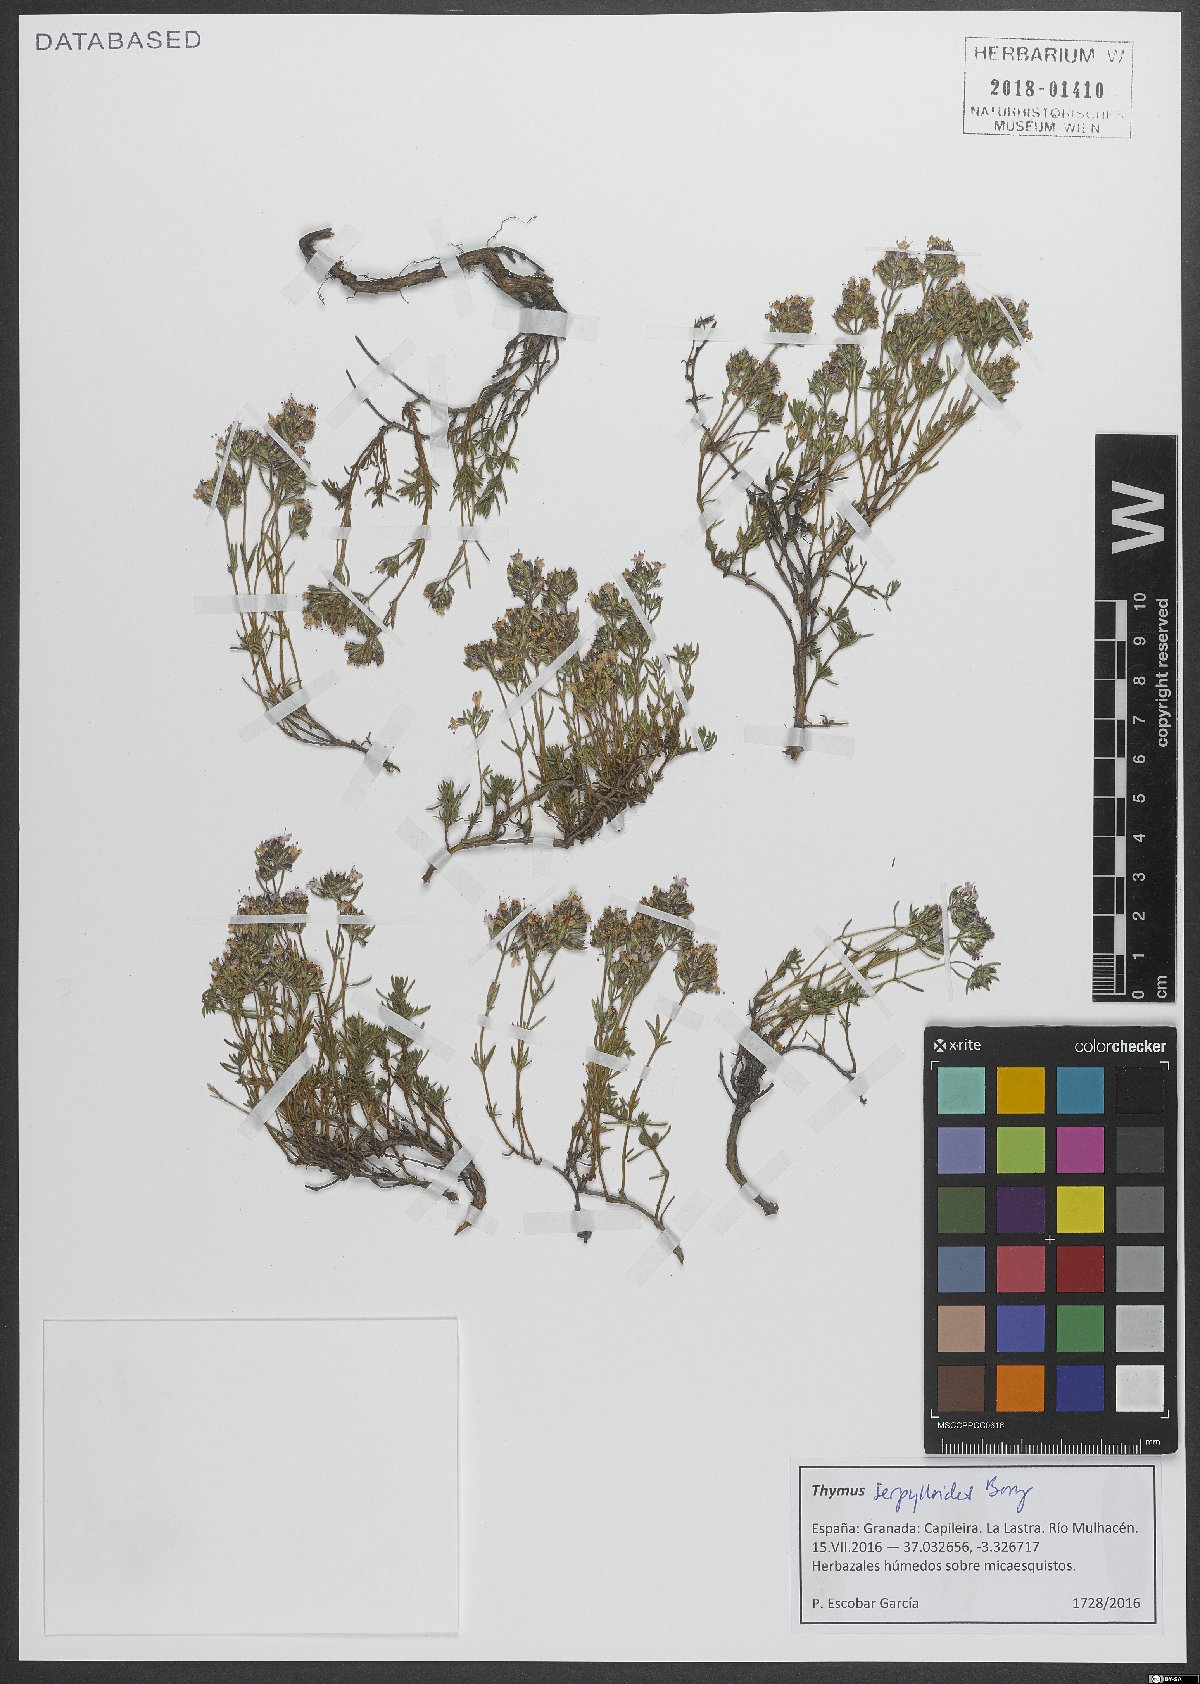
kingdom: Plantae
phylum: Tracheophyta
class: Magnoliopsida
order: Lamiales
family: Lamiaceae
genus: Thymus
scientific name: Thymus serpylloides
